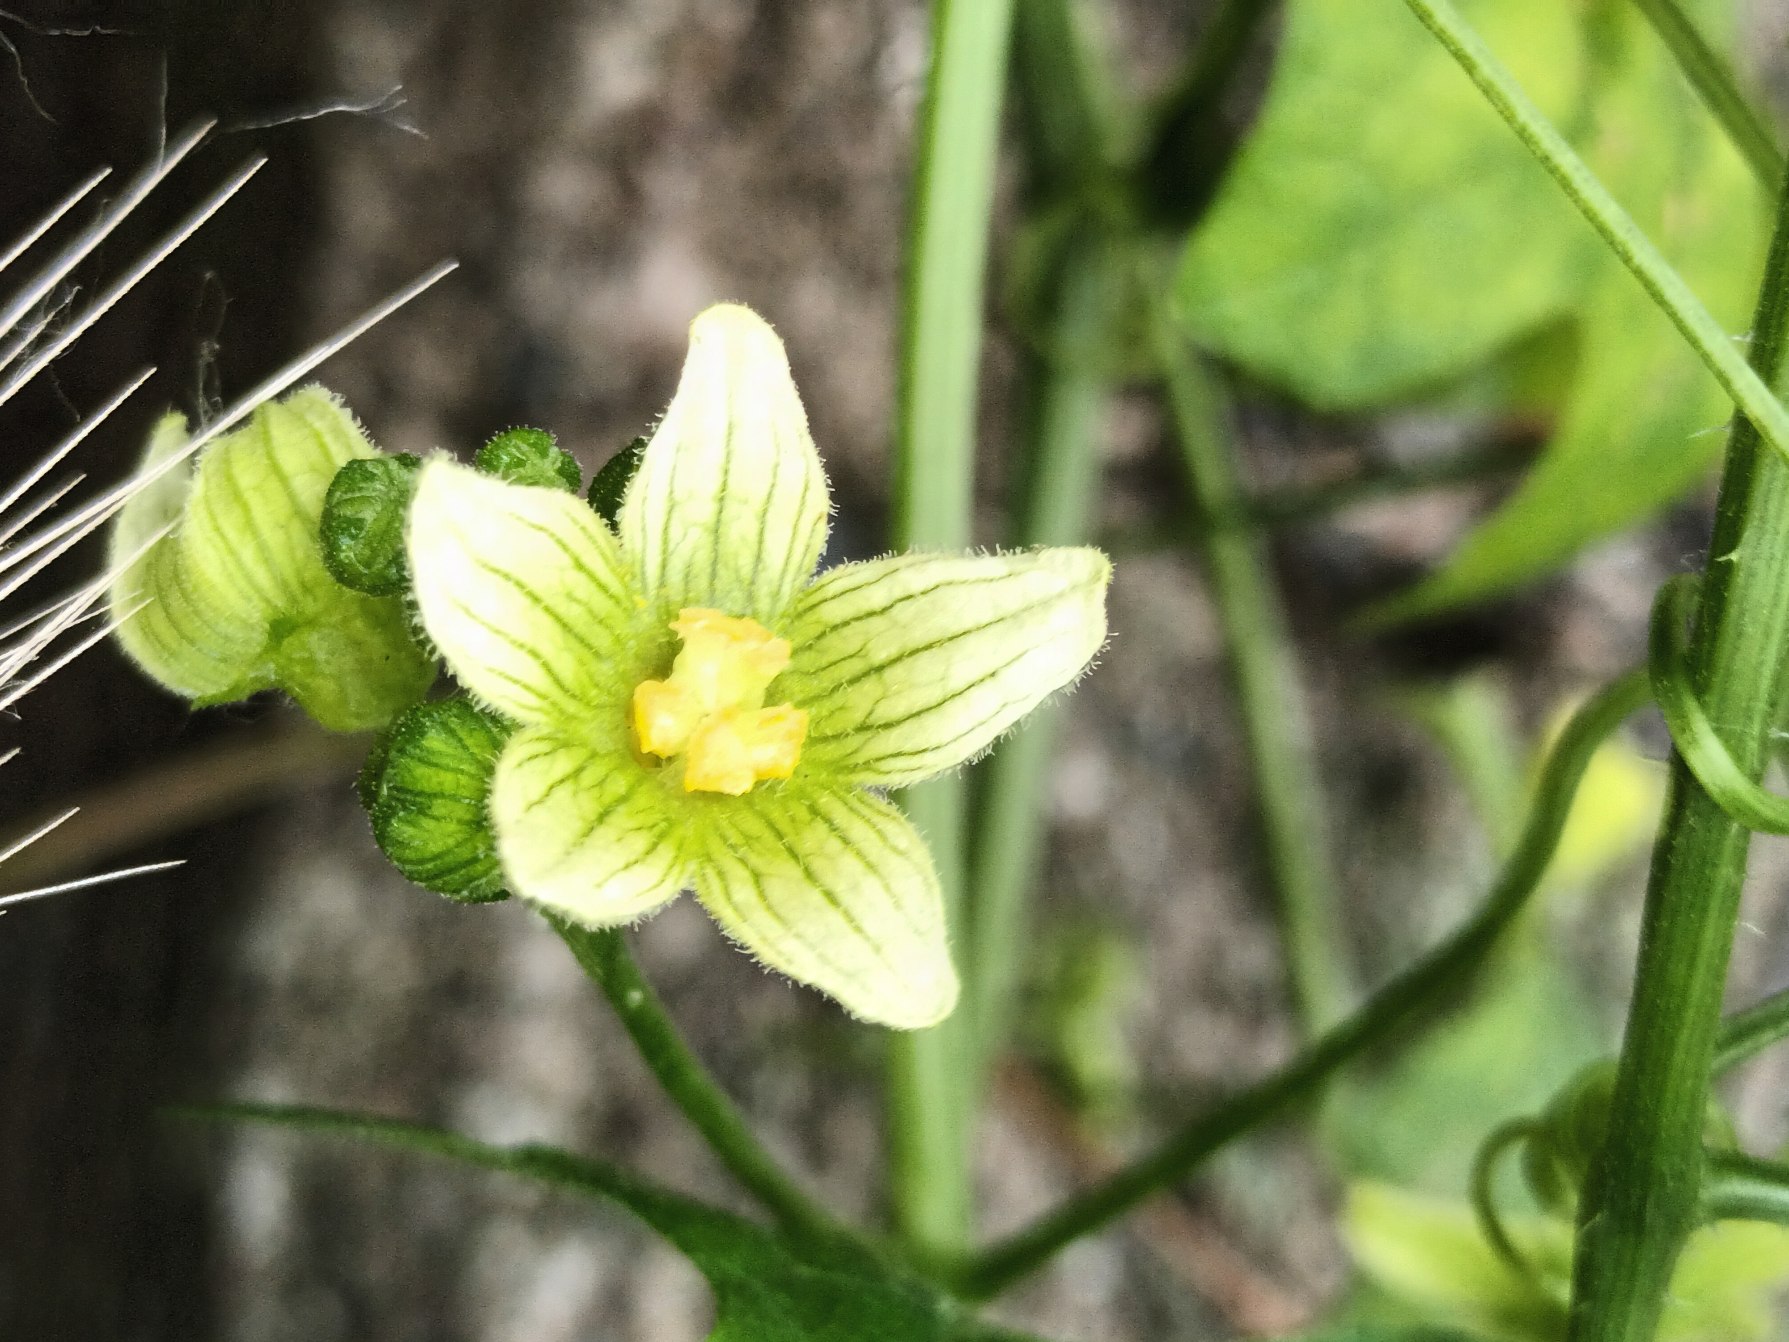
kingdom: Plantae
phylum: Tracheophyta
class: Magnoliopsida
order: Cucurbitales
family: Cucurbitaceae
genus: Bryonia
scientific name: Bryonia dioica
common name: Tvebo galdebær
